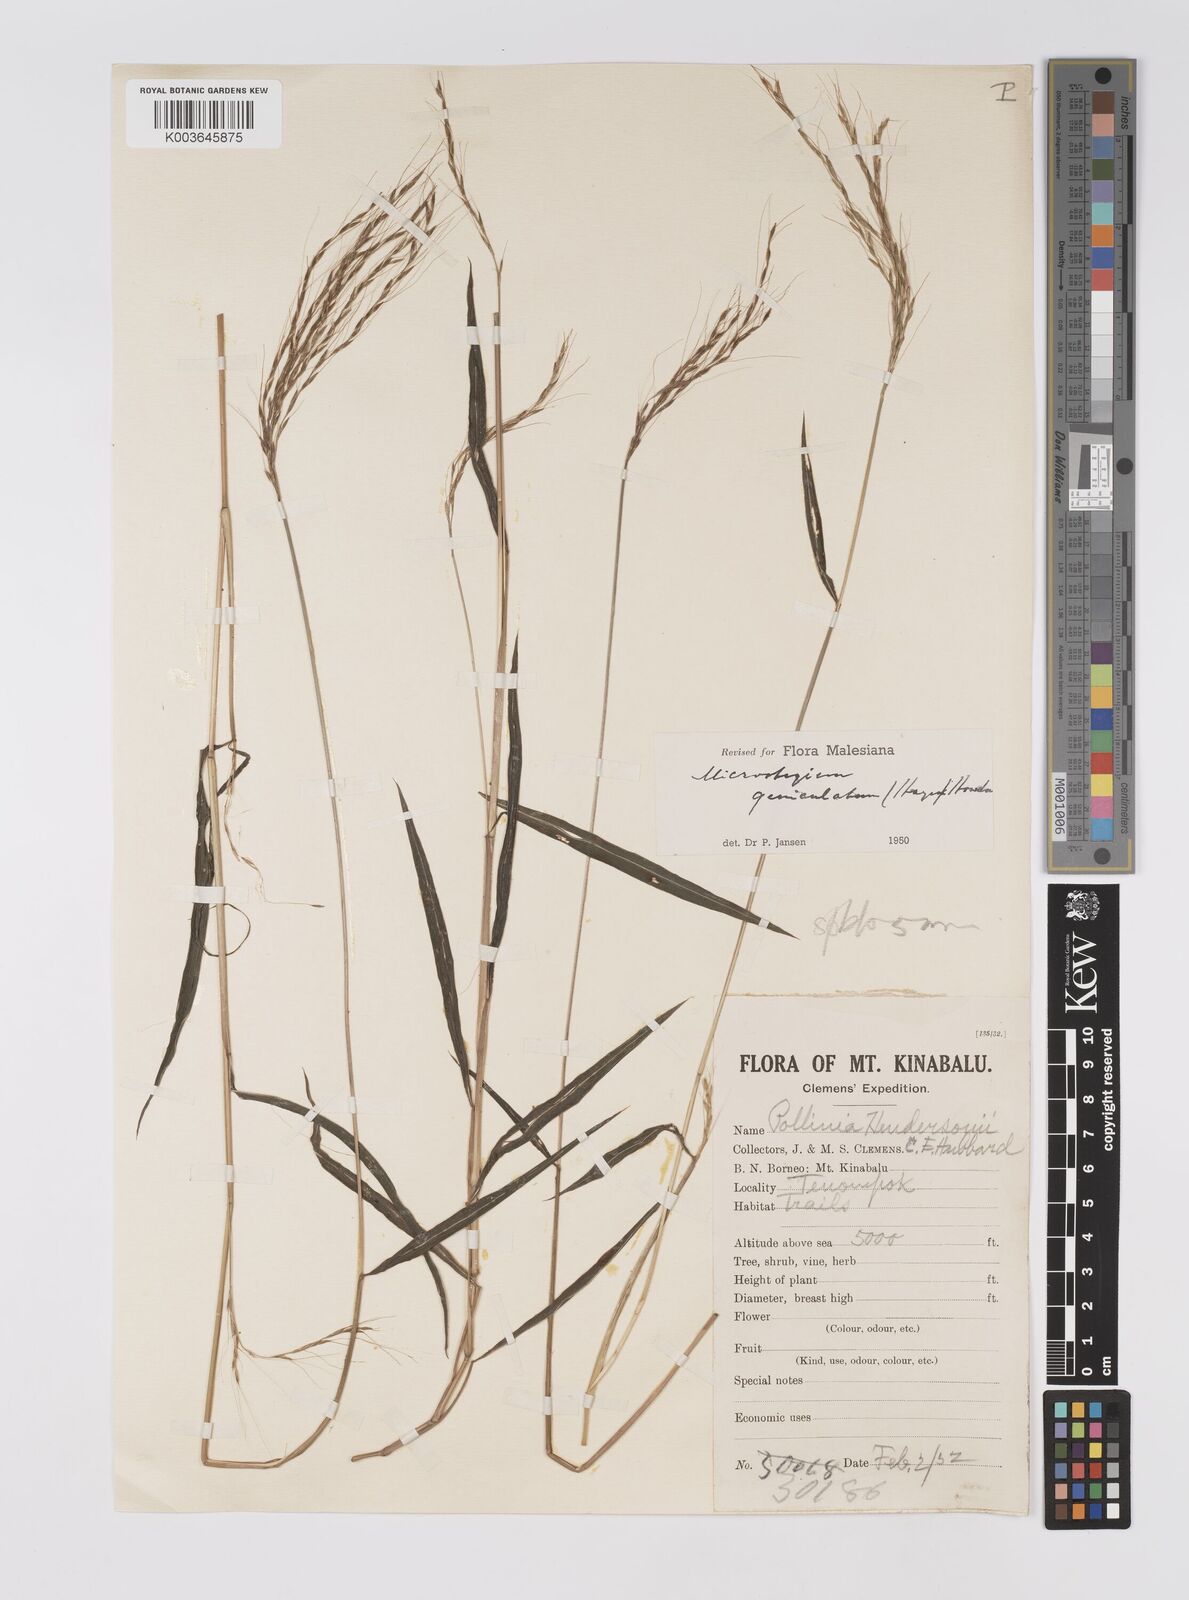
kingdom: Plantae
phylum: Tracheophyta
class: Liliopsida
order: Poales
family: Poaceae
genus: Microstegium
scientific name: Microstegium geniculatum
